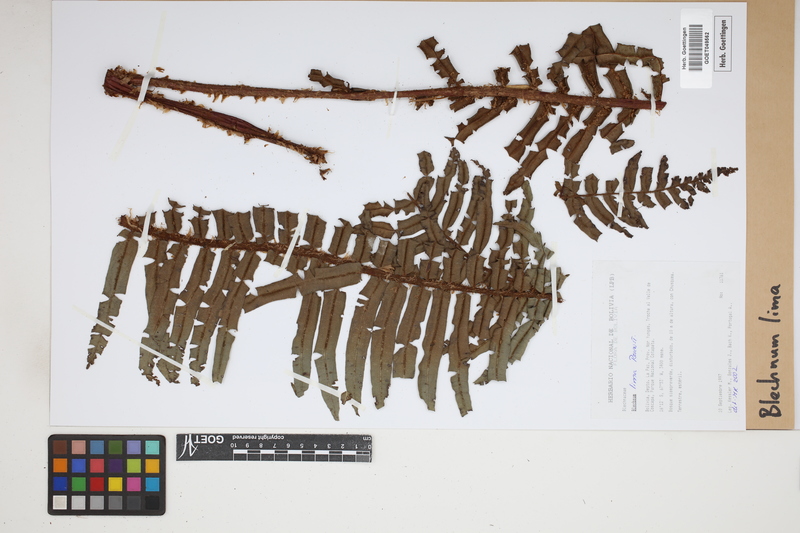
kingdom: Plantae
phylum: Tracheophyta
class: Polypodiopsida
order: Polypodiales
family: Blechnaceae
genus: Parablechnum
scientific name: Parablechnum lima
